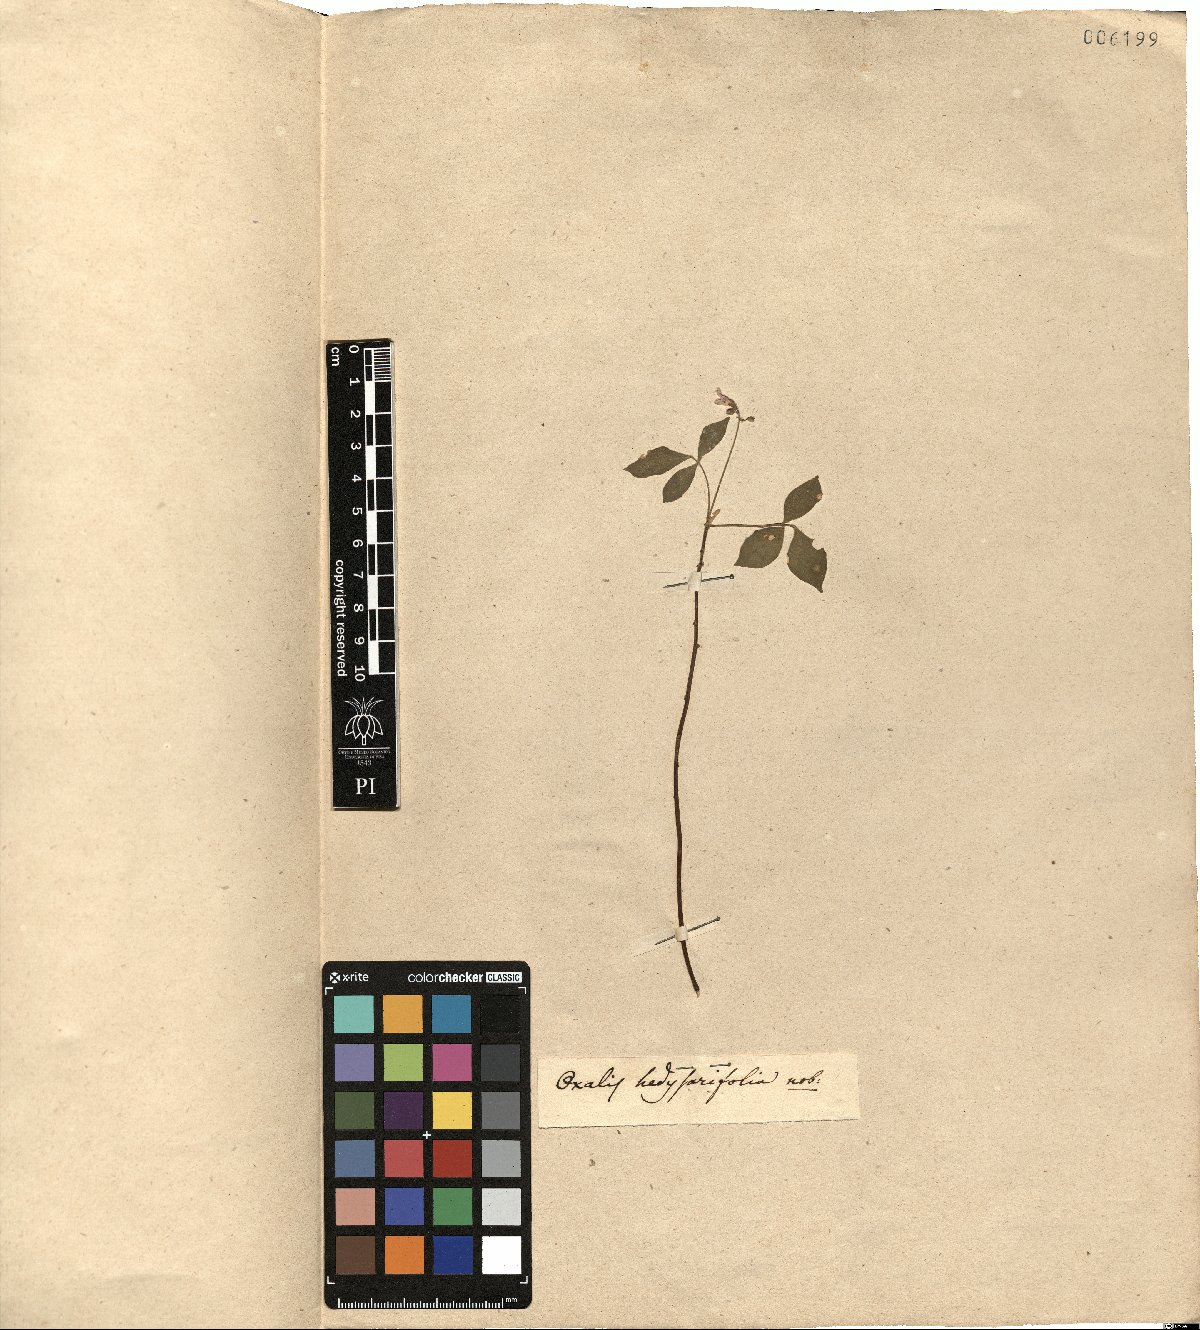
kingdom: Plantae
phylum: Tracheophyta
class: Magnoliopsida
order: Oxalidales
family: Oxalidaceae
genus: Oxalis
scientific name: Oxalis rhombifolia
